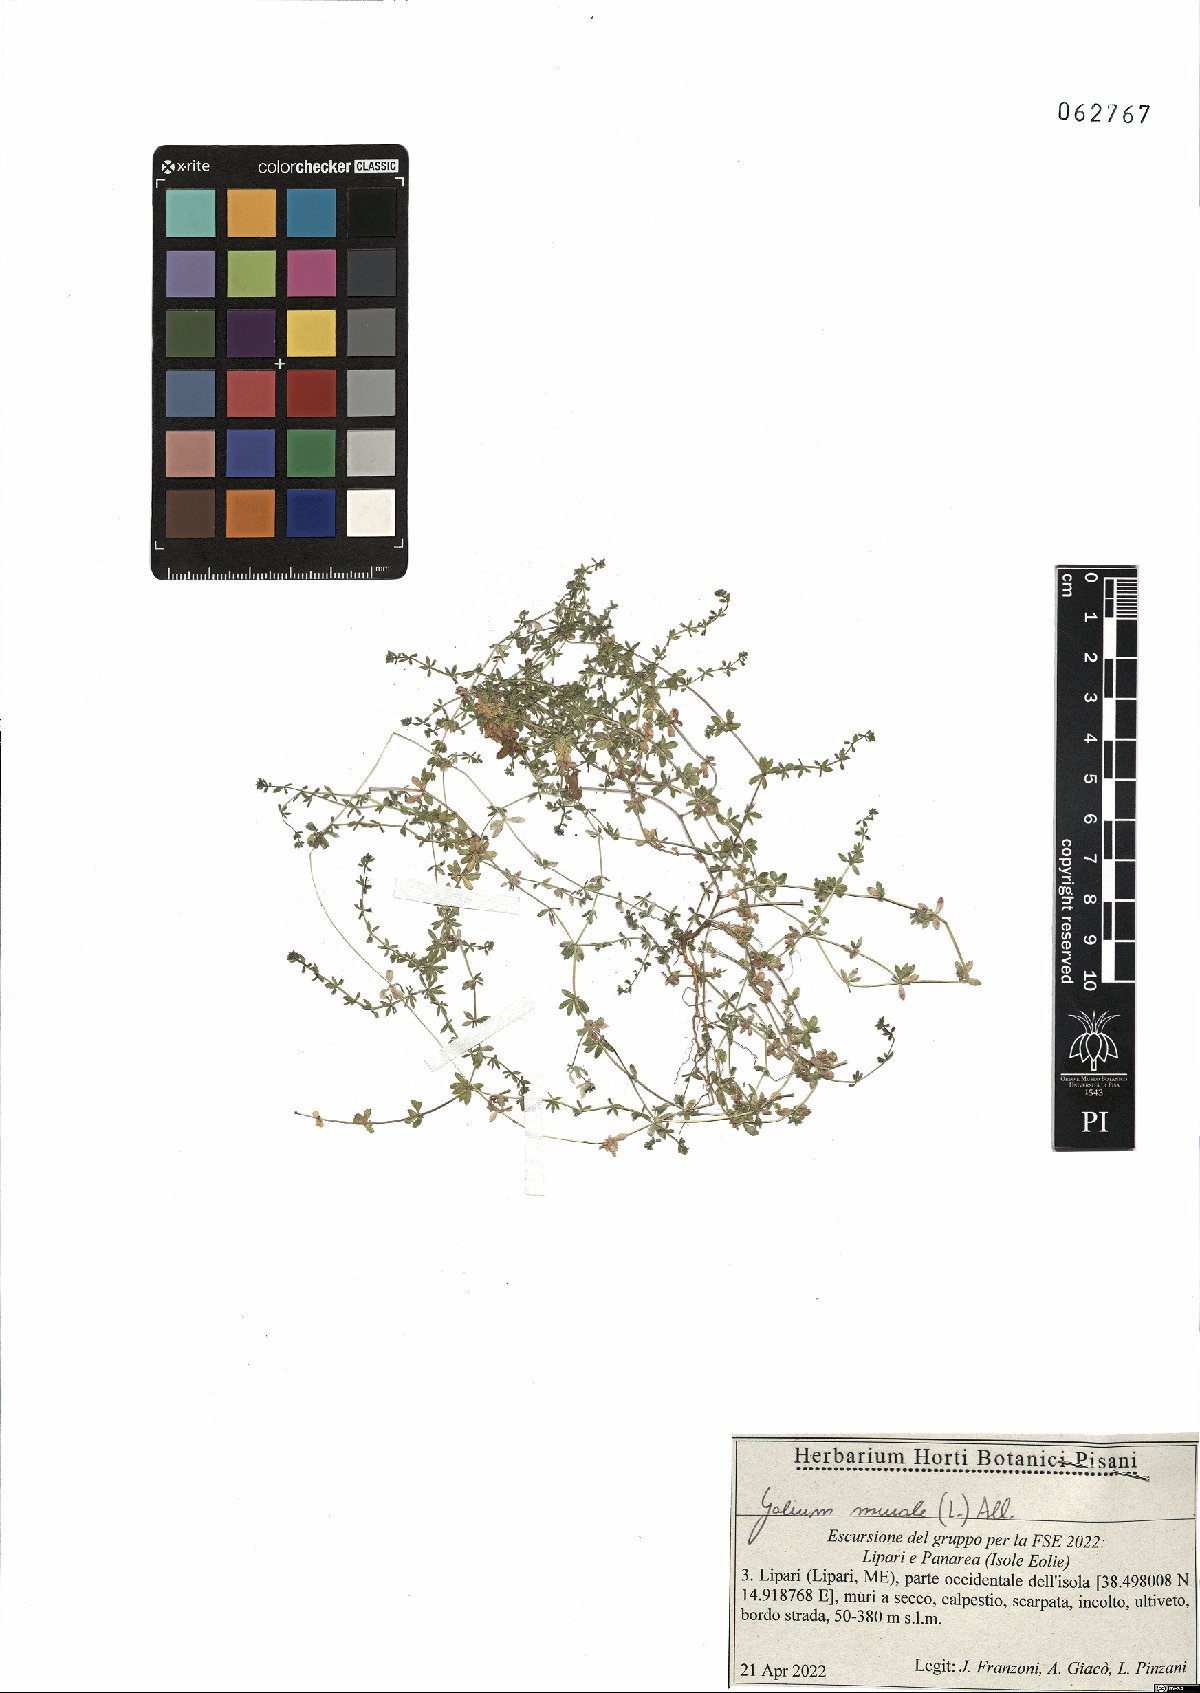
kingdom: Plantae
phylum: Tracheophyta
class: Magnoliopsida
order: Gentianales
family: Rubiaceae
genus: Galium
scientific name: Galium murale
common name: Yellow wall bedstraw
